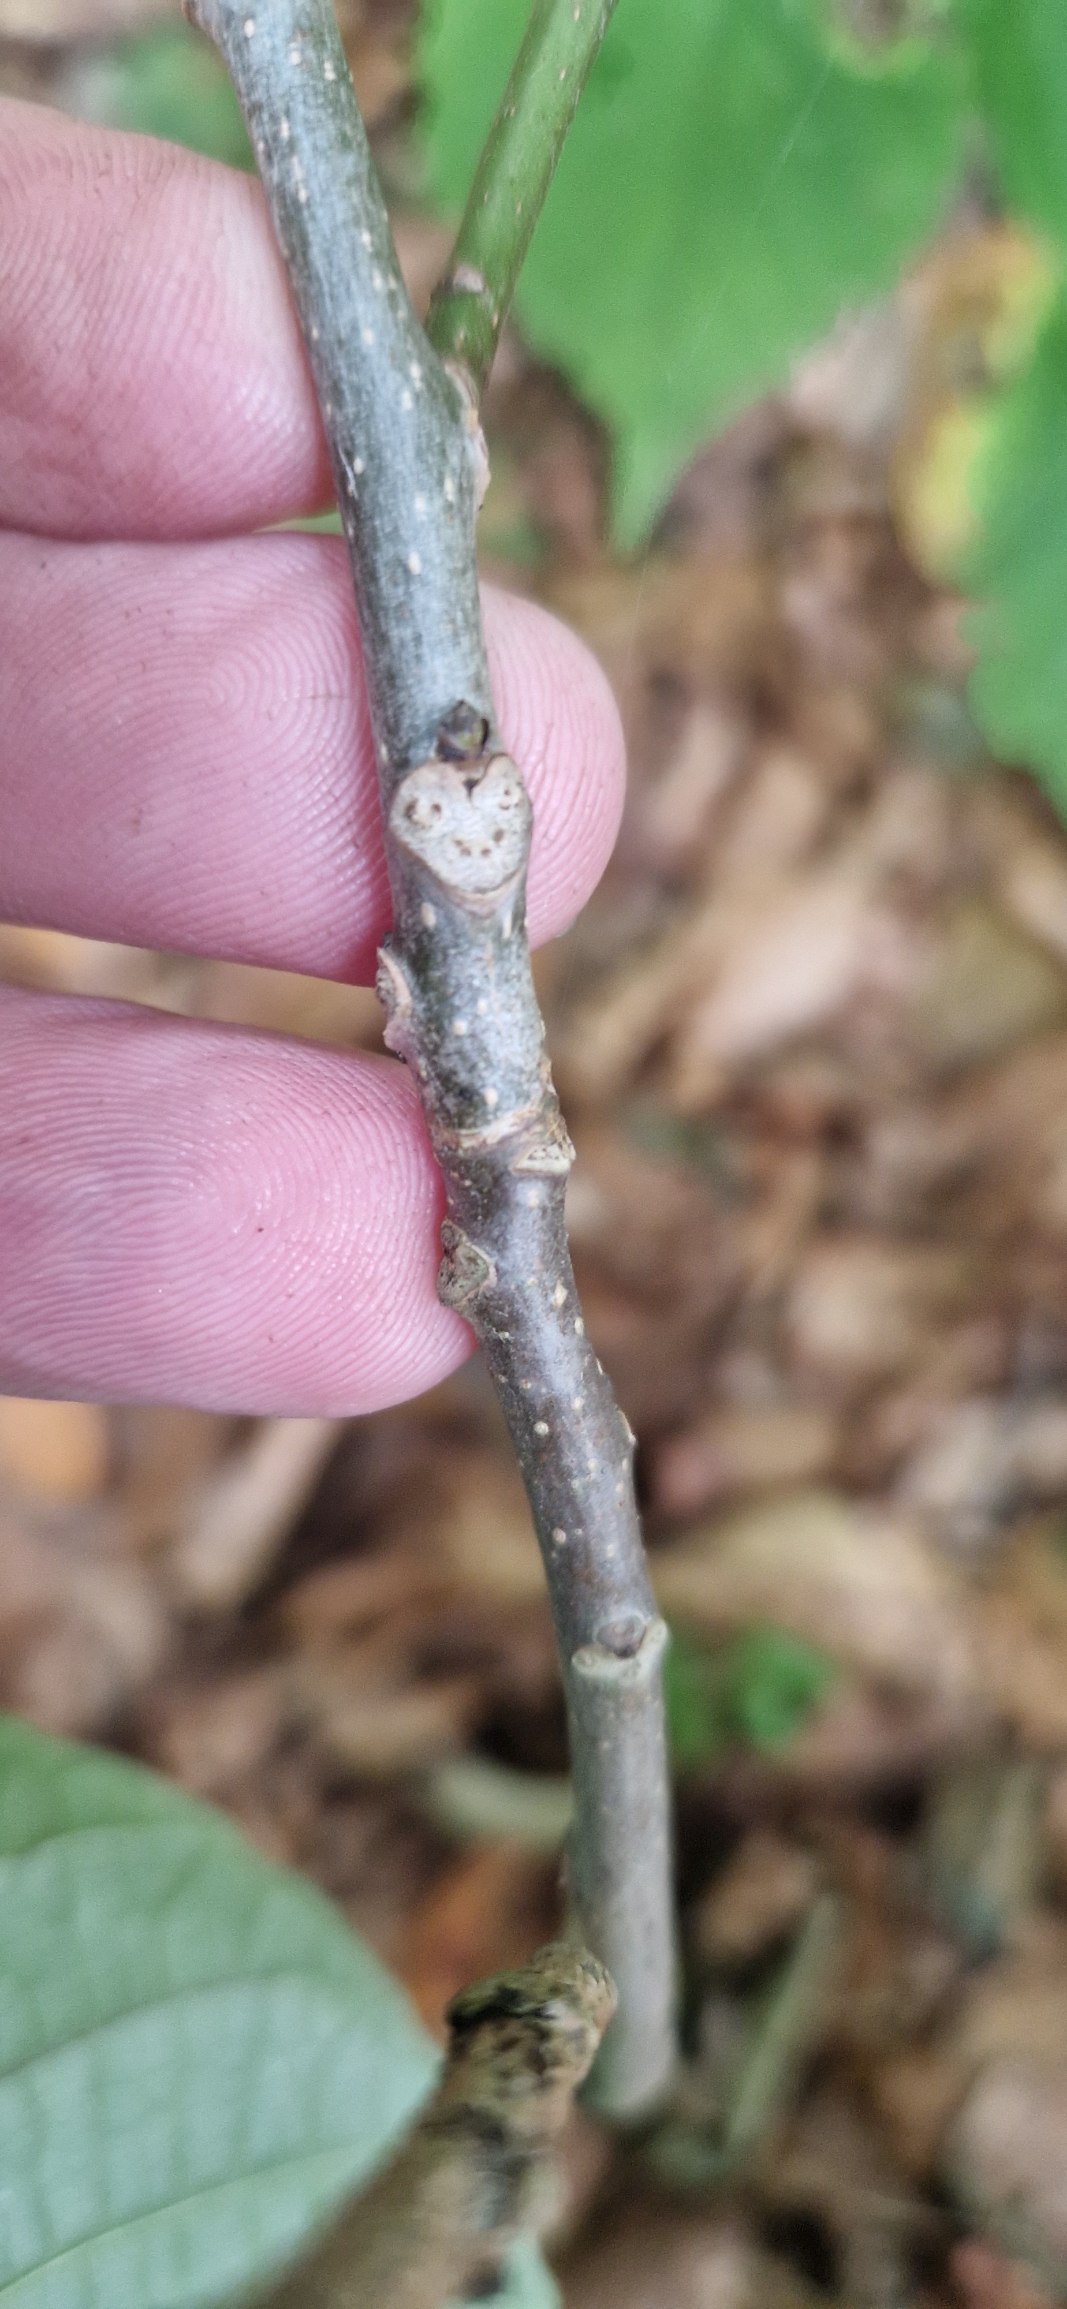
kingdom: Plantae
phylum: Tracheophyta
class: Magnoliopsida
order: Fagales
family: Juglandaceae
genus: Juglans
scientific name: Juglans regia
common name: Almindelig valnød
